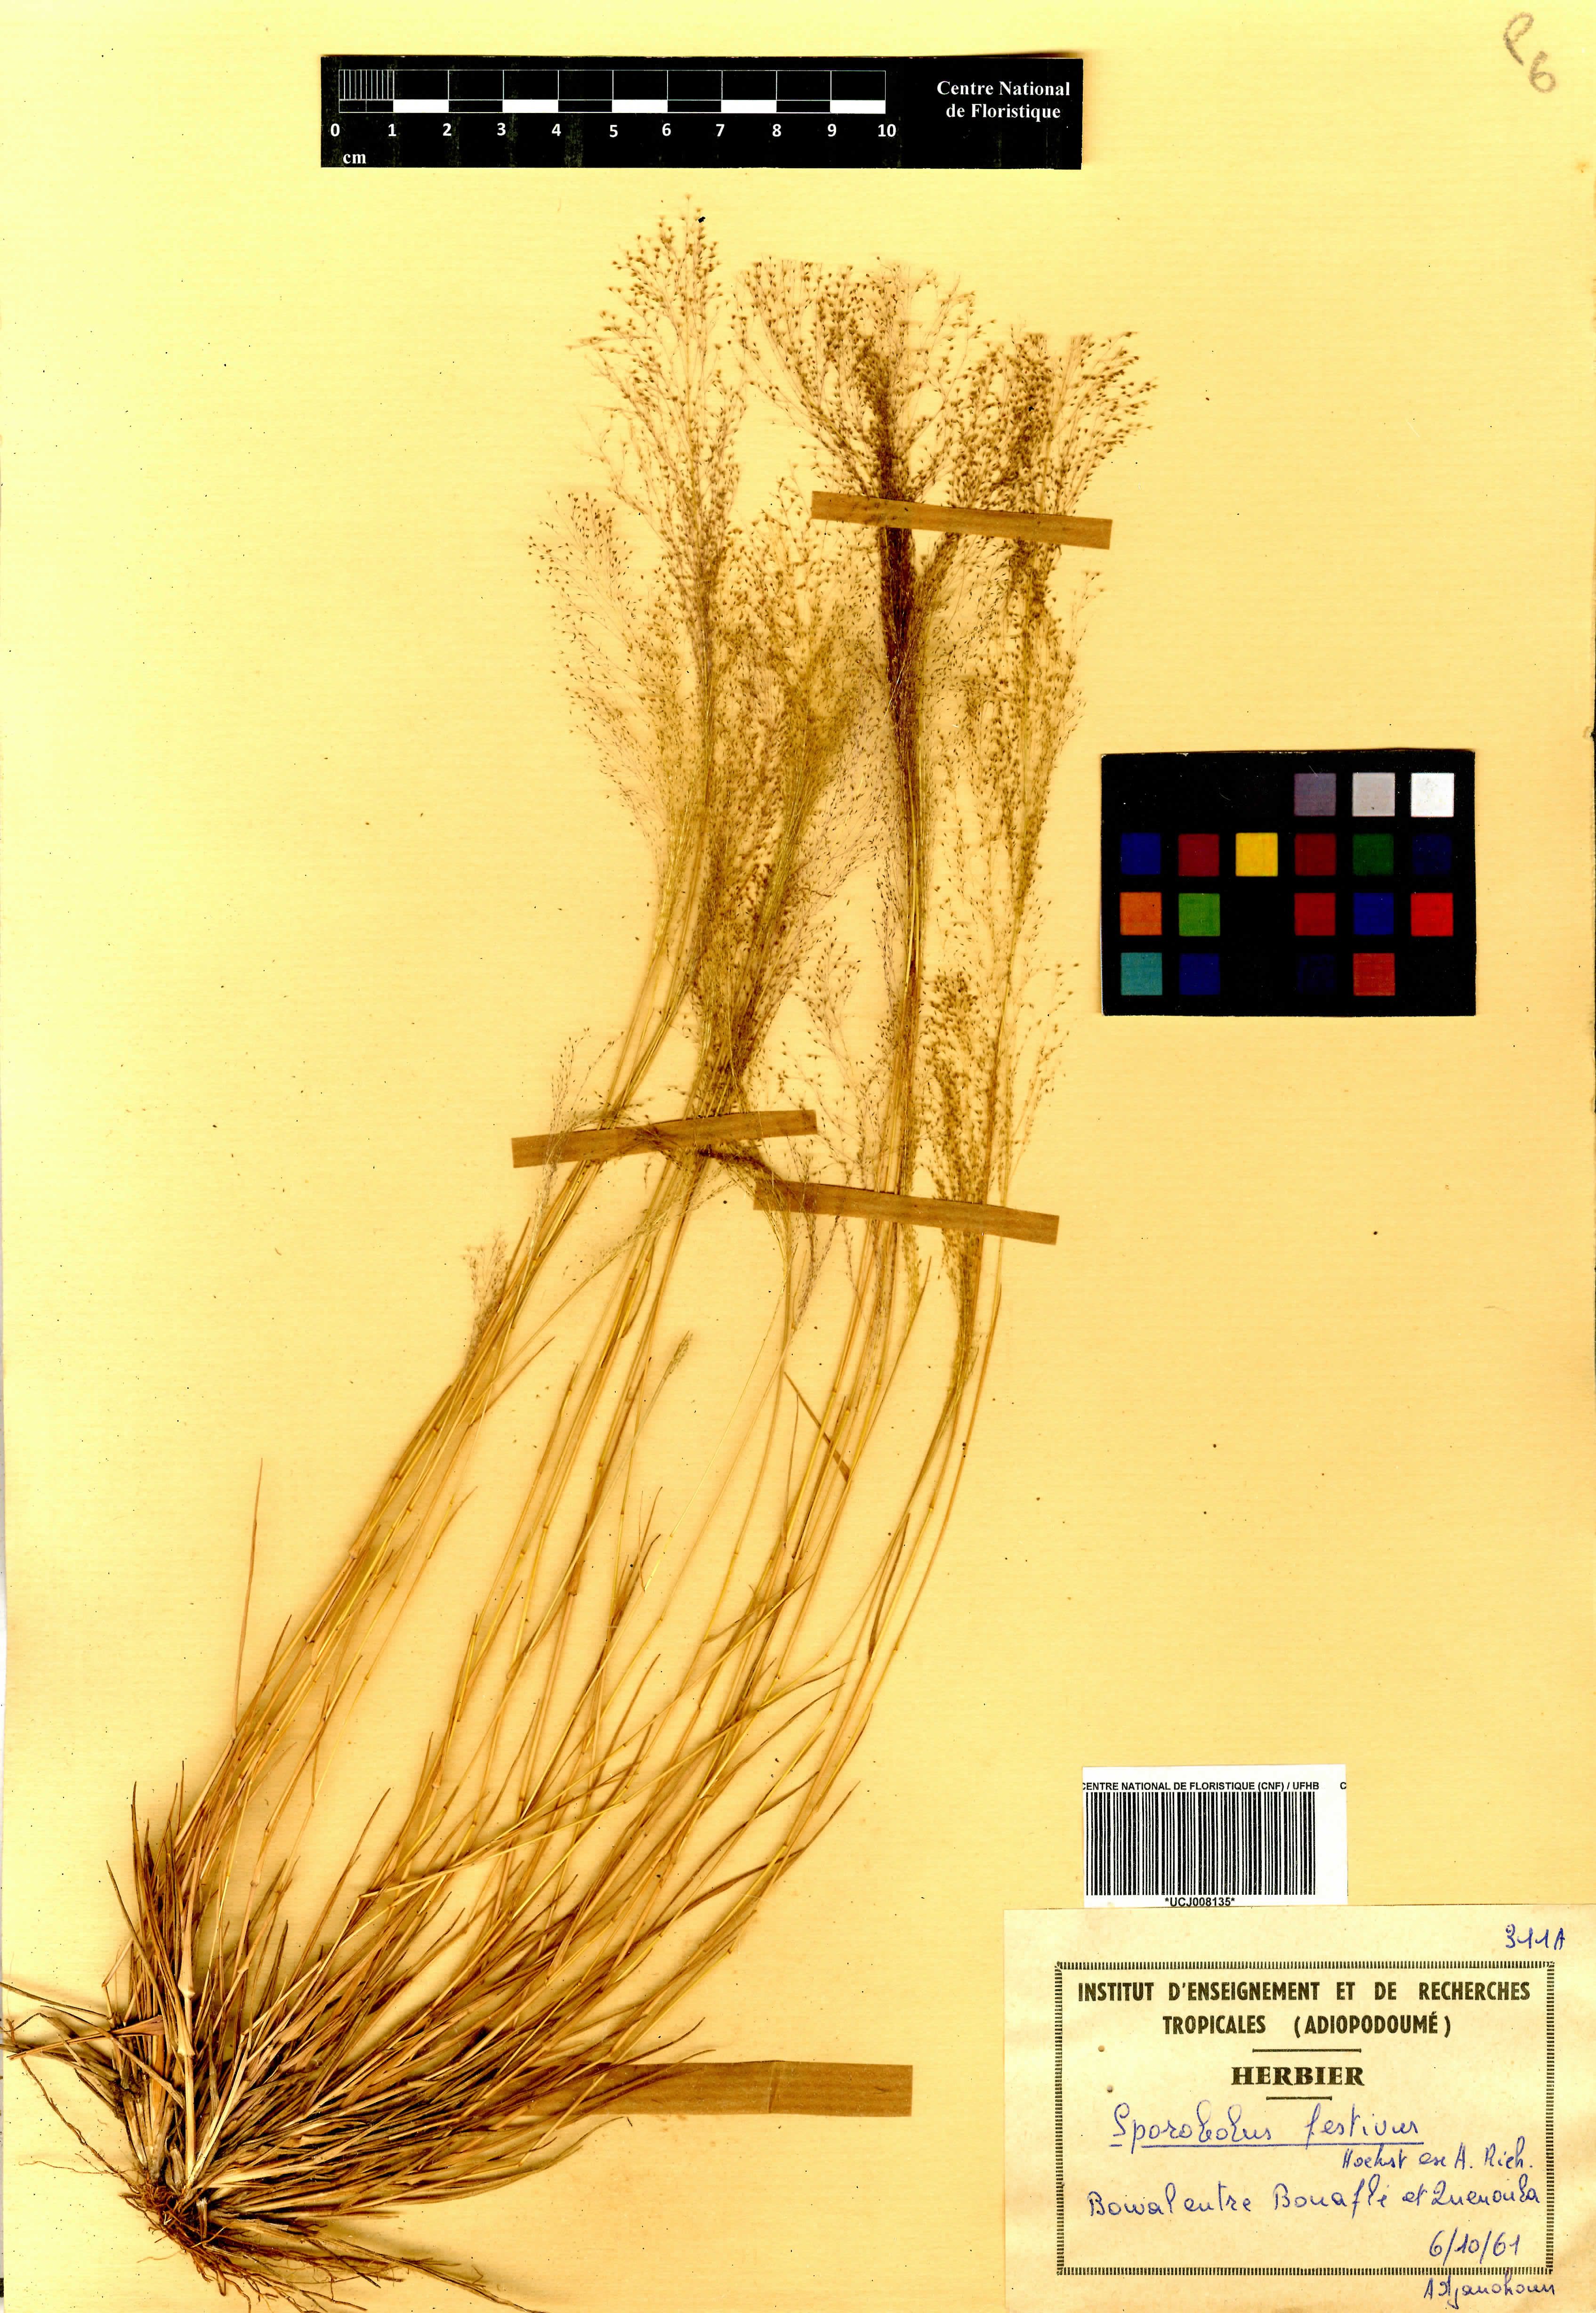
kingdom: Plantae
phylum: Tracheophyta
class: Liliopsida
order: Poales
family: Poaceae
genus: Sporobolus
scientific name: Sporobolus festivus
